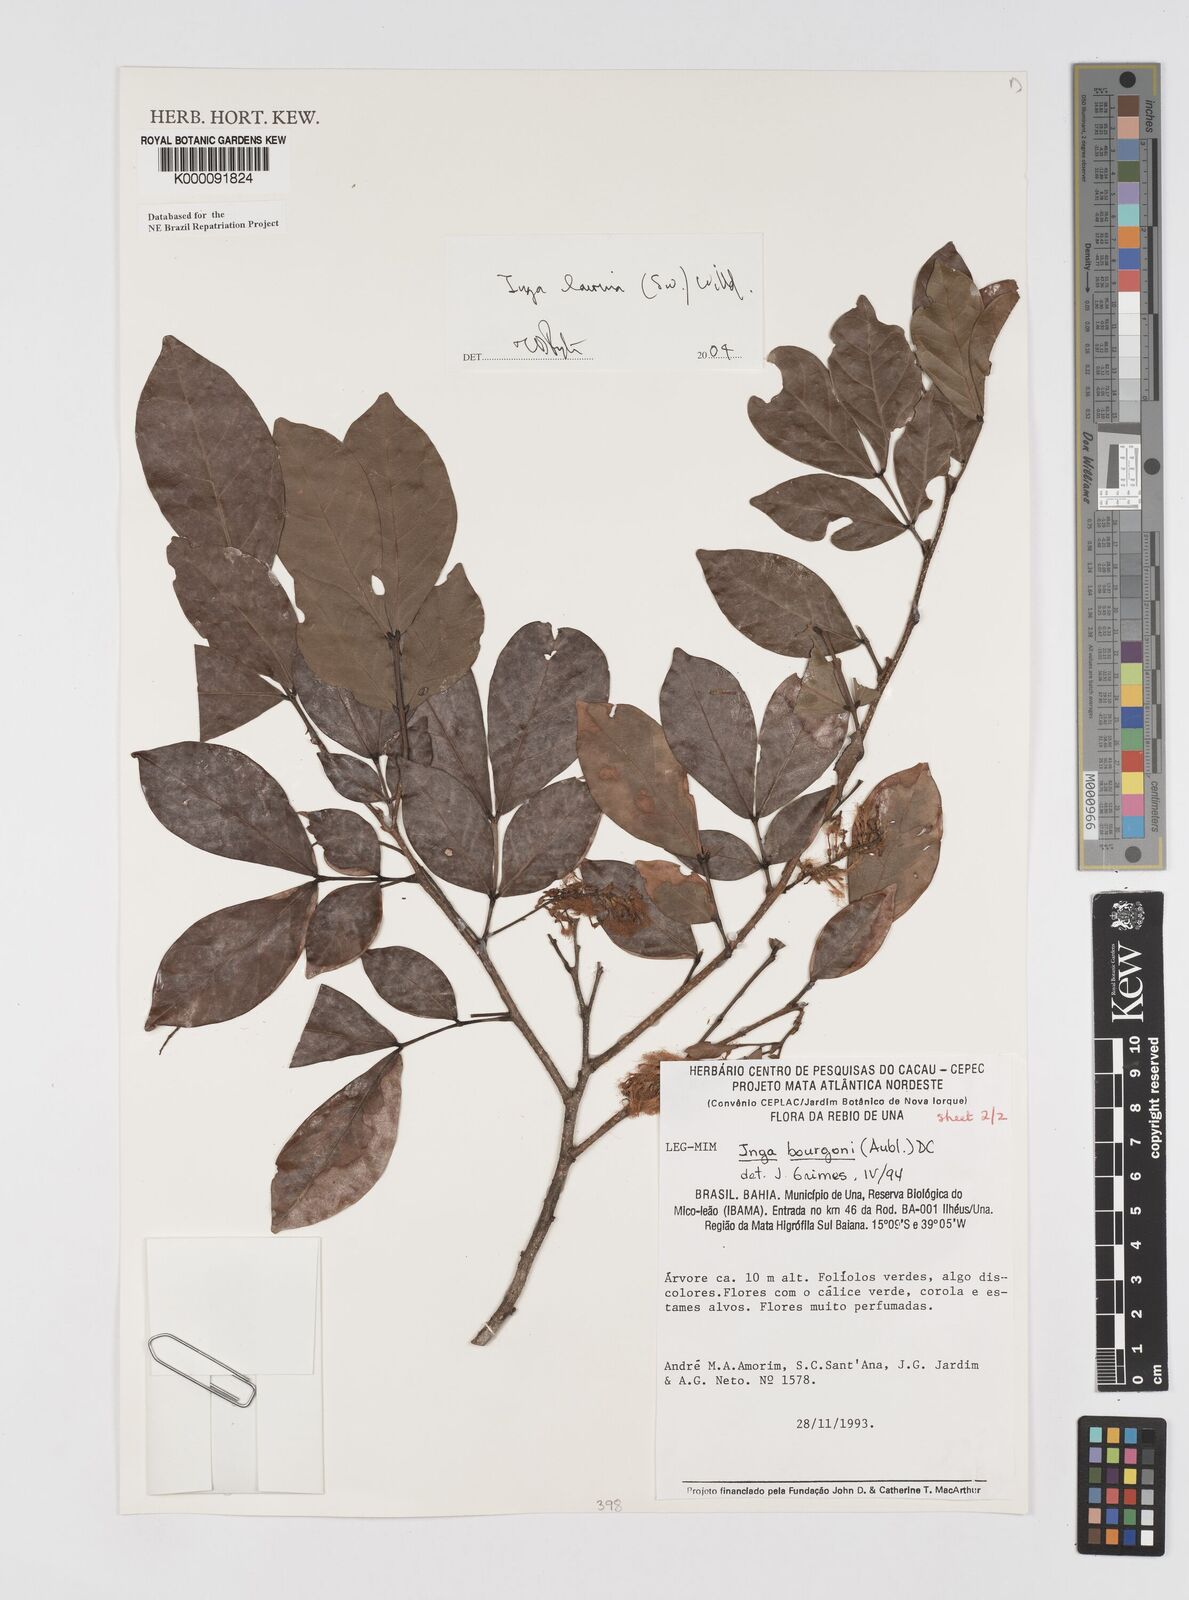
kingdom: Plantae
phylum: Tracheophyta
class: Magnoliopsida
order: Fabales
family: Fabaceae
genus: Inga
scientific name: Inga bourgoni
